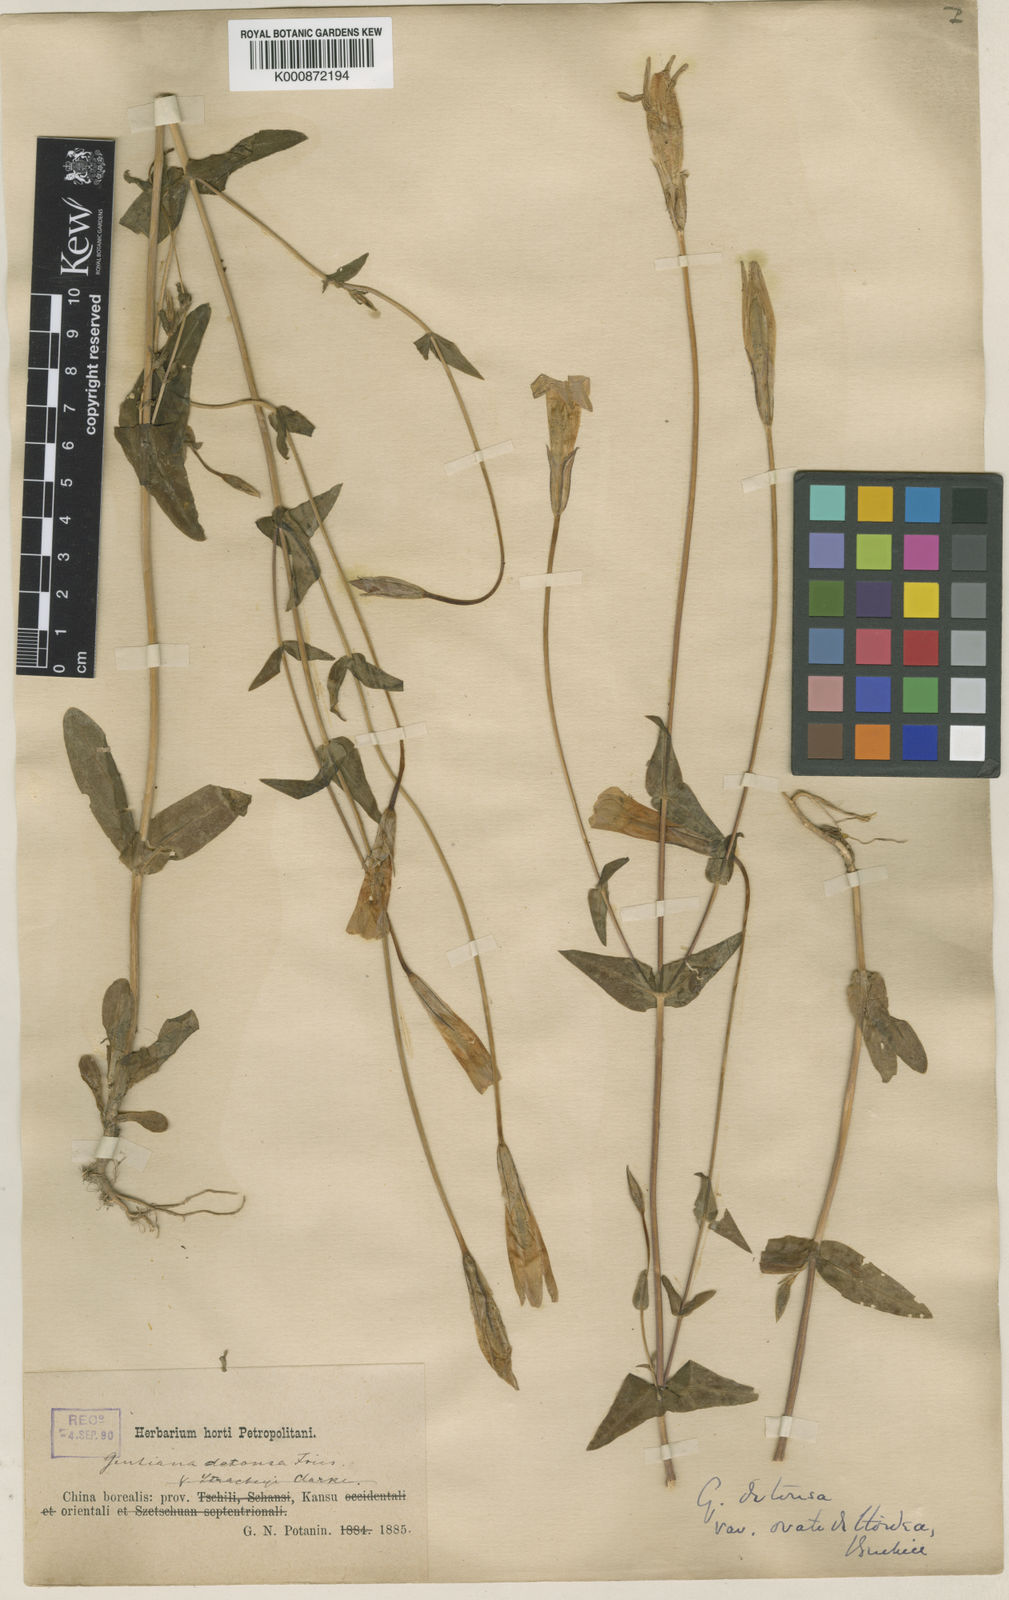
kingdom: Plantae
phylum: Tracheophyta
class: Magnoliopsida
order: Gentianales
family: Gentianaceae
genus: Gentianopsis
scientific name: Gentianopsis detonsa
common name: Fringed-gentian
